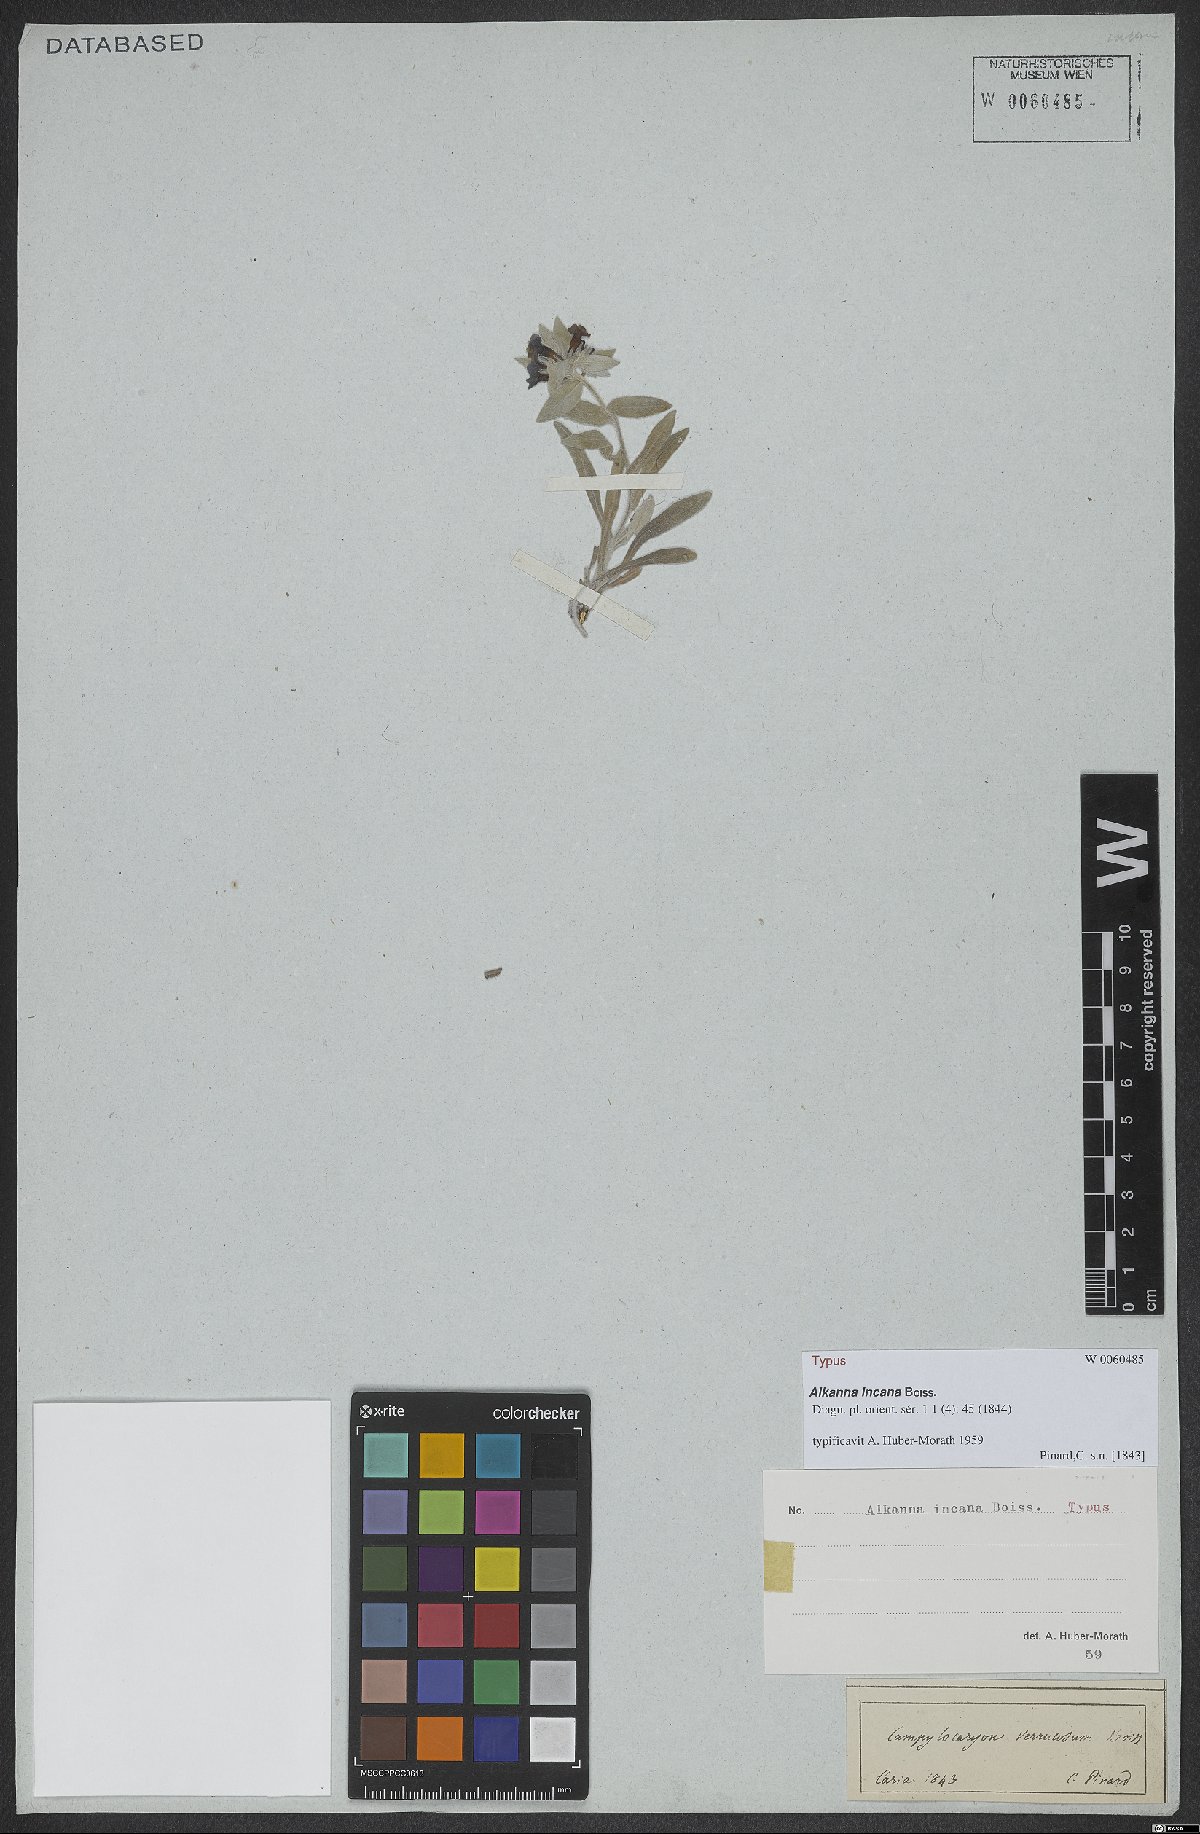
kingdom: Plantae
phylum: Tracheophyta
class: Magnoliopsida
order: Boraginales
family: Boraginaceae
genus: Alkanna
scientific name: Alkanna incana
